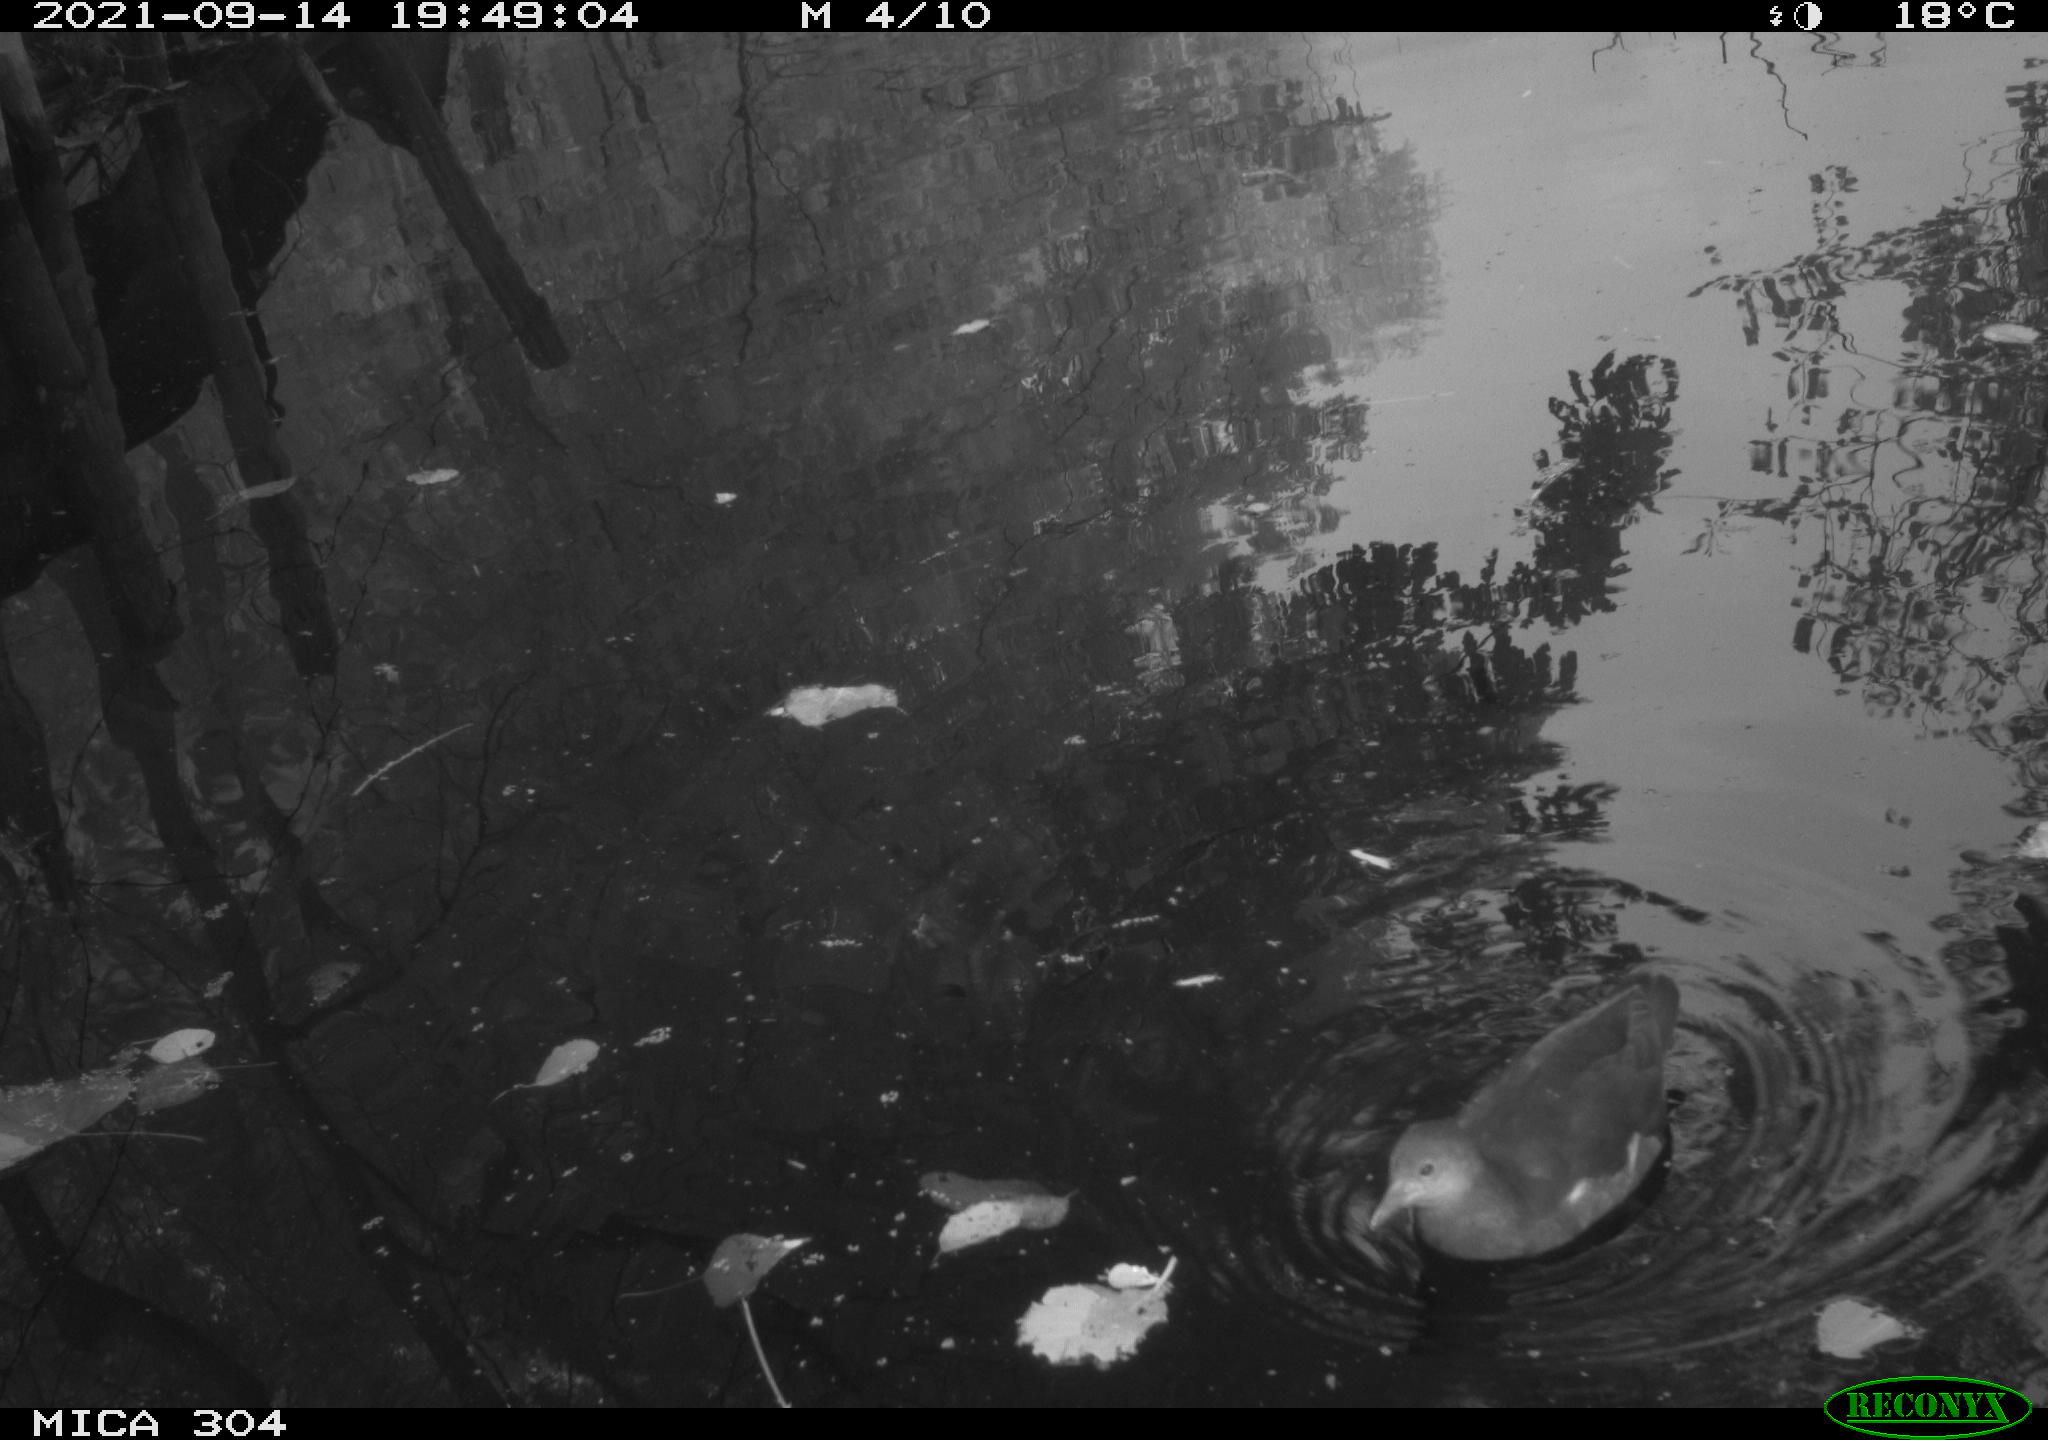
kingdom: Animalia
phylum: Chordata
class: Aves
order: Gruiformes
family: Rallidae
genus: Gallinula
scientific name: Gallinula chloropus
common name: Common moorhen
